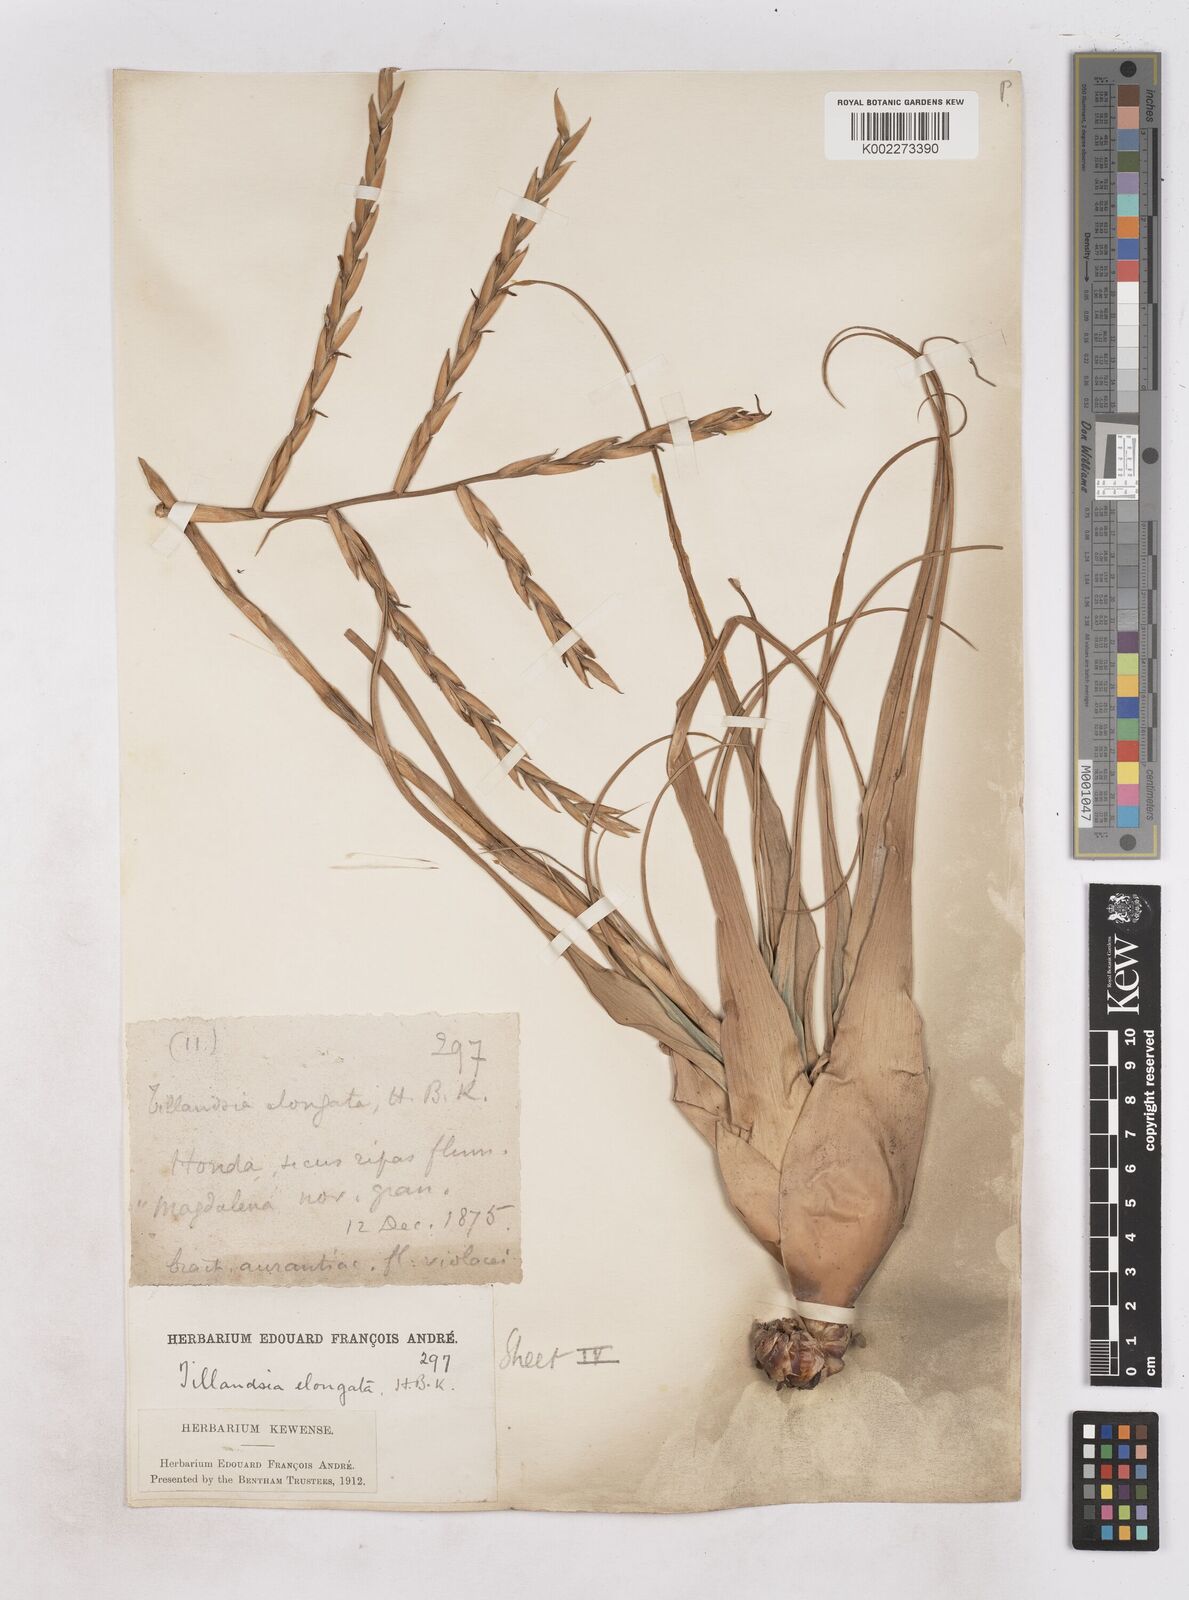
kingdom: Plantae
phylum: Tracheophyta
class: Liliopsida
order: Poales
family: Bromeliaceae
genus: Tillandsia
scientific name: Tillandsia elongata
